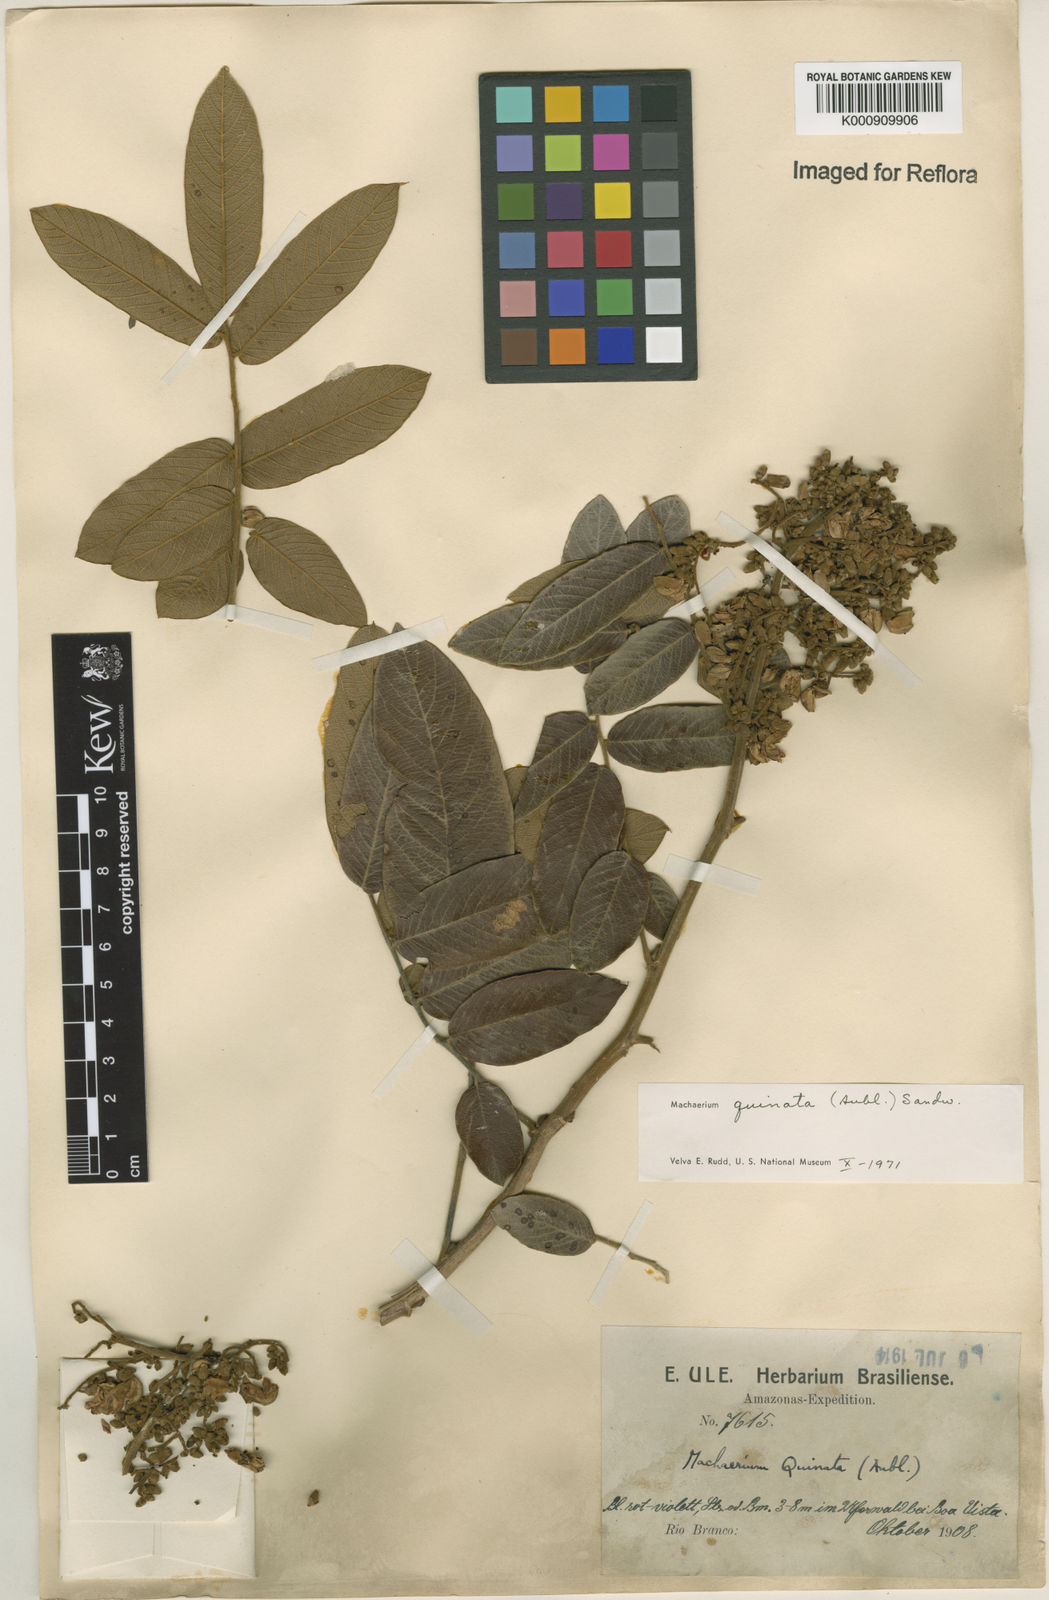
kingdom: Plantae
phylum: Tracheophyta
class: Magnoliopsida
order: Fabales
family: Fabaceae
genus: Machaerium
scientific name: Machaerium quinata
